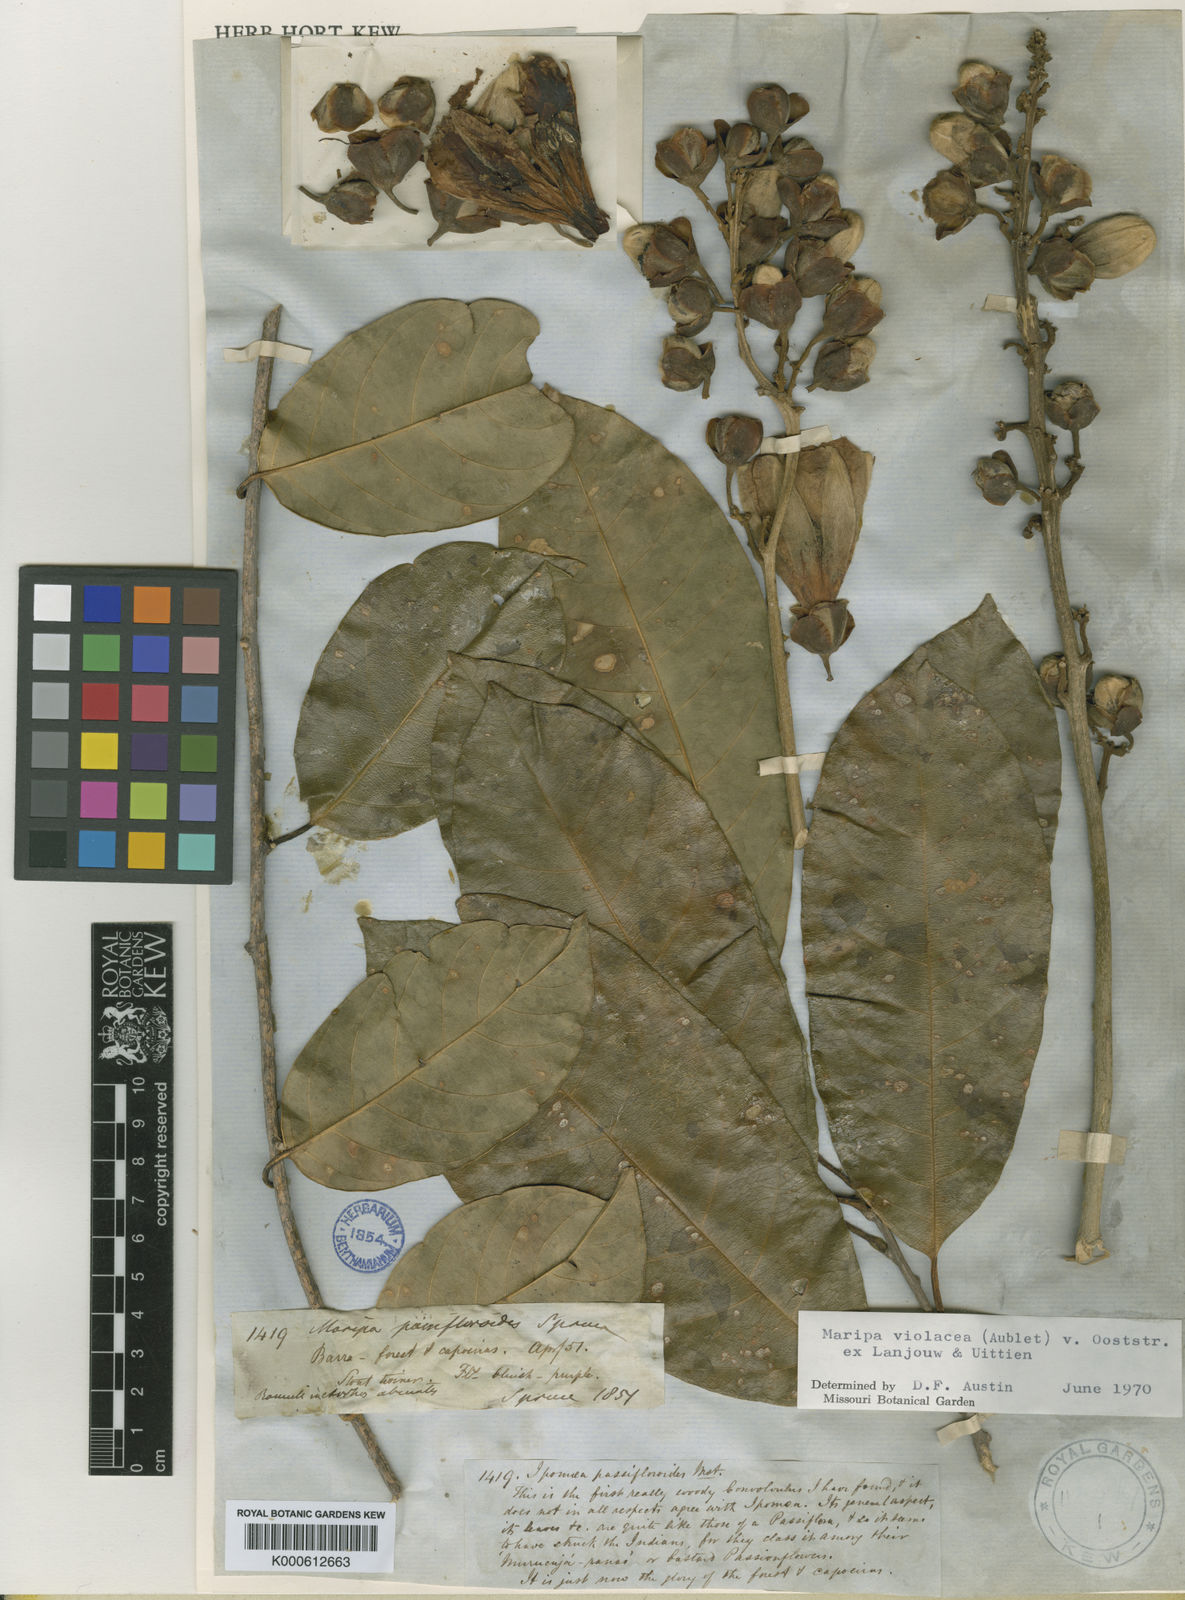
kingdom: Plantae
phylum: Tracheophyta
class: Magnoliopsida
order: Solanales
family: Convolvulaceae
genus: Maripa
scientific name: Maripa violacea
